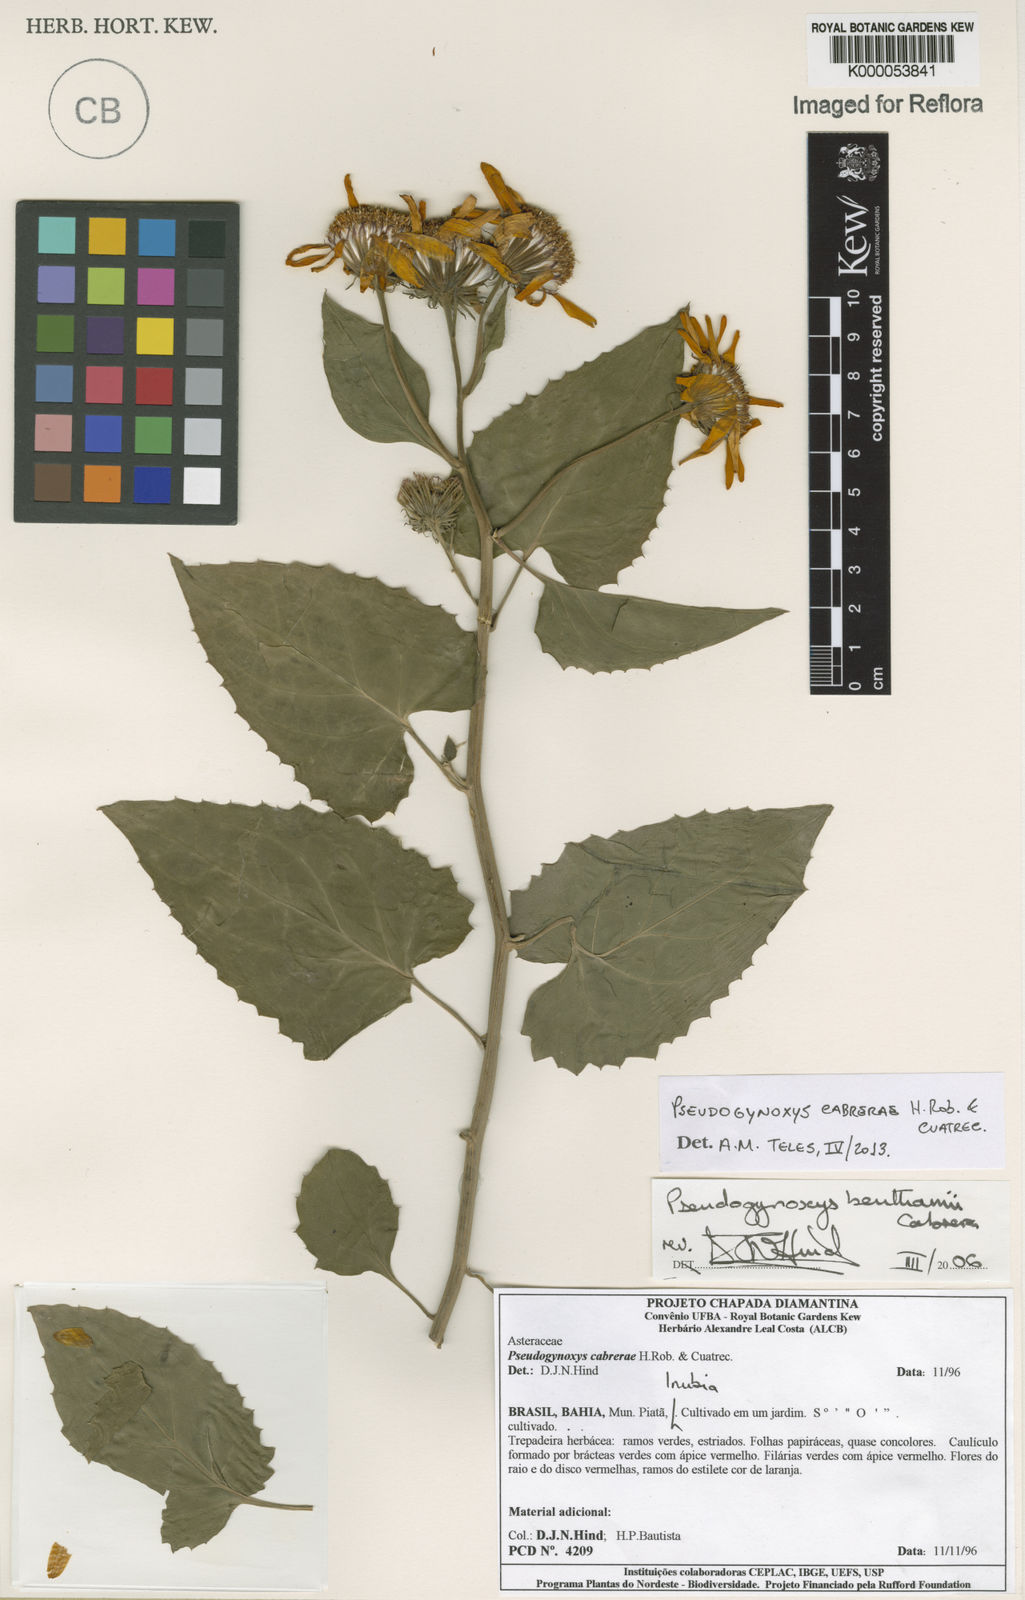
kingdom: Plantae
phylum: Tracheophyta
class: Magnoliopsida
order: Asterales
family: Asteraceae
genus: Pseudogynoxys
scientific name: Pseudogynoxys cumingii
